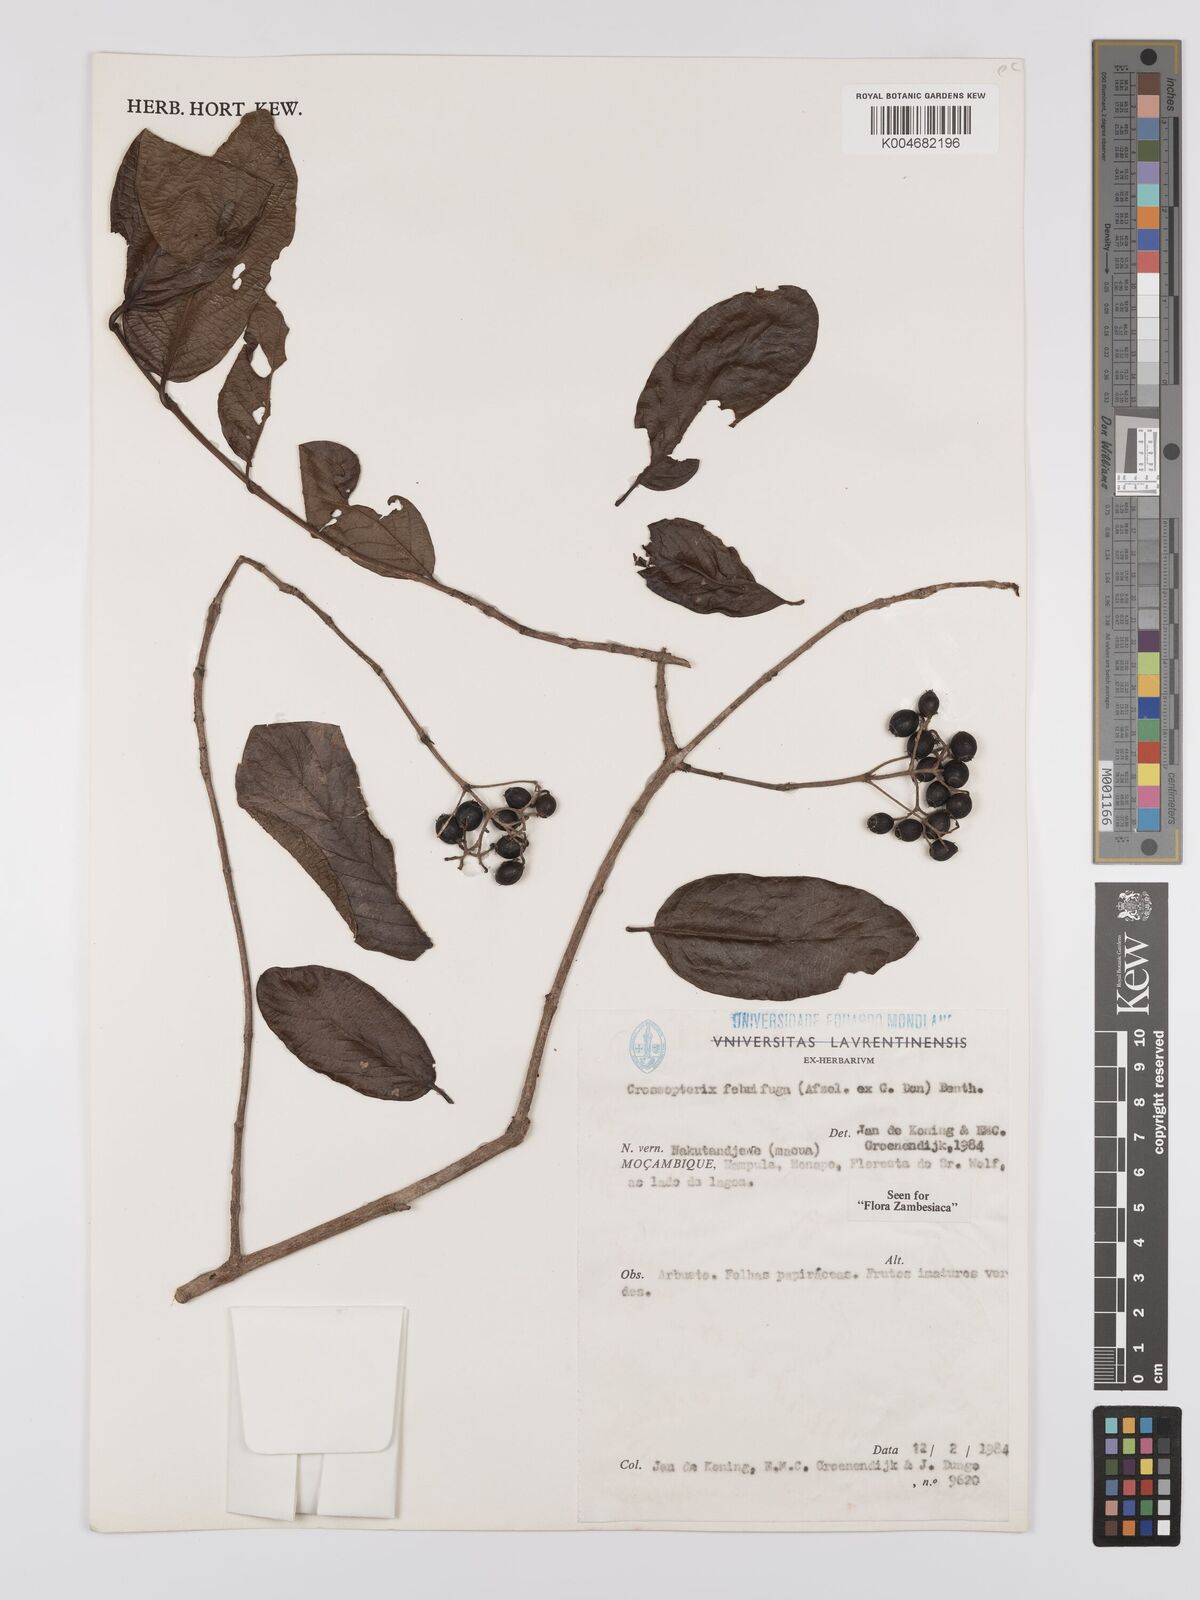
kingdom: Plantae
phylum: Tracheophyta
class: Magnoliopsida
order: Gentianales
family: Rubiaceae
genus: Crossopteryx
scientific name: Crossopteryx febrifuga
